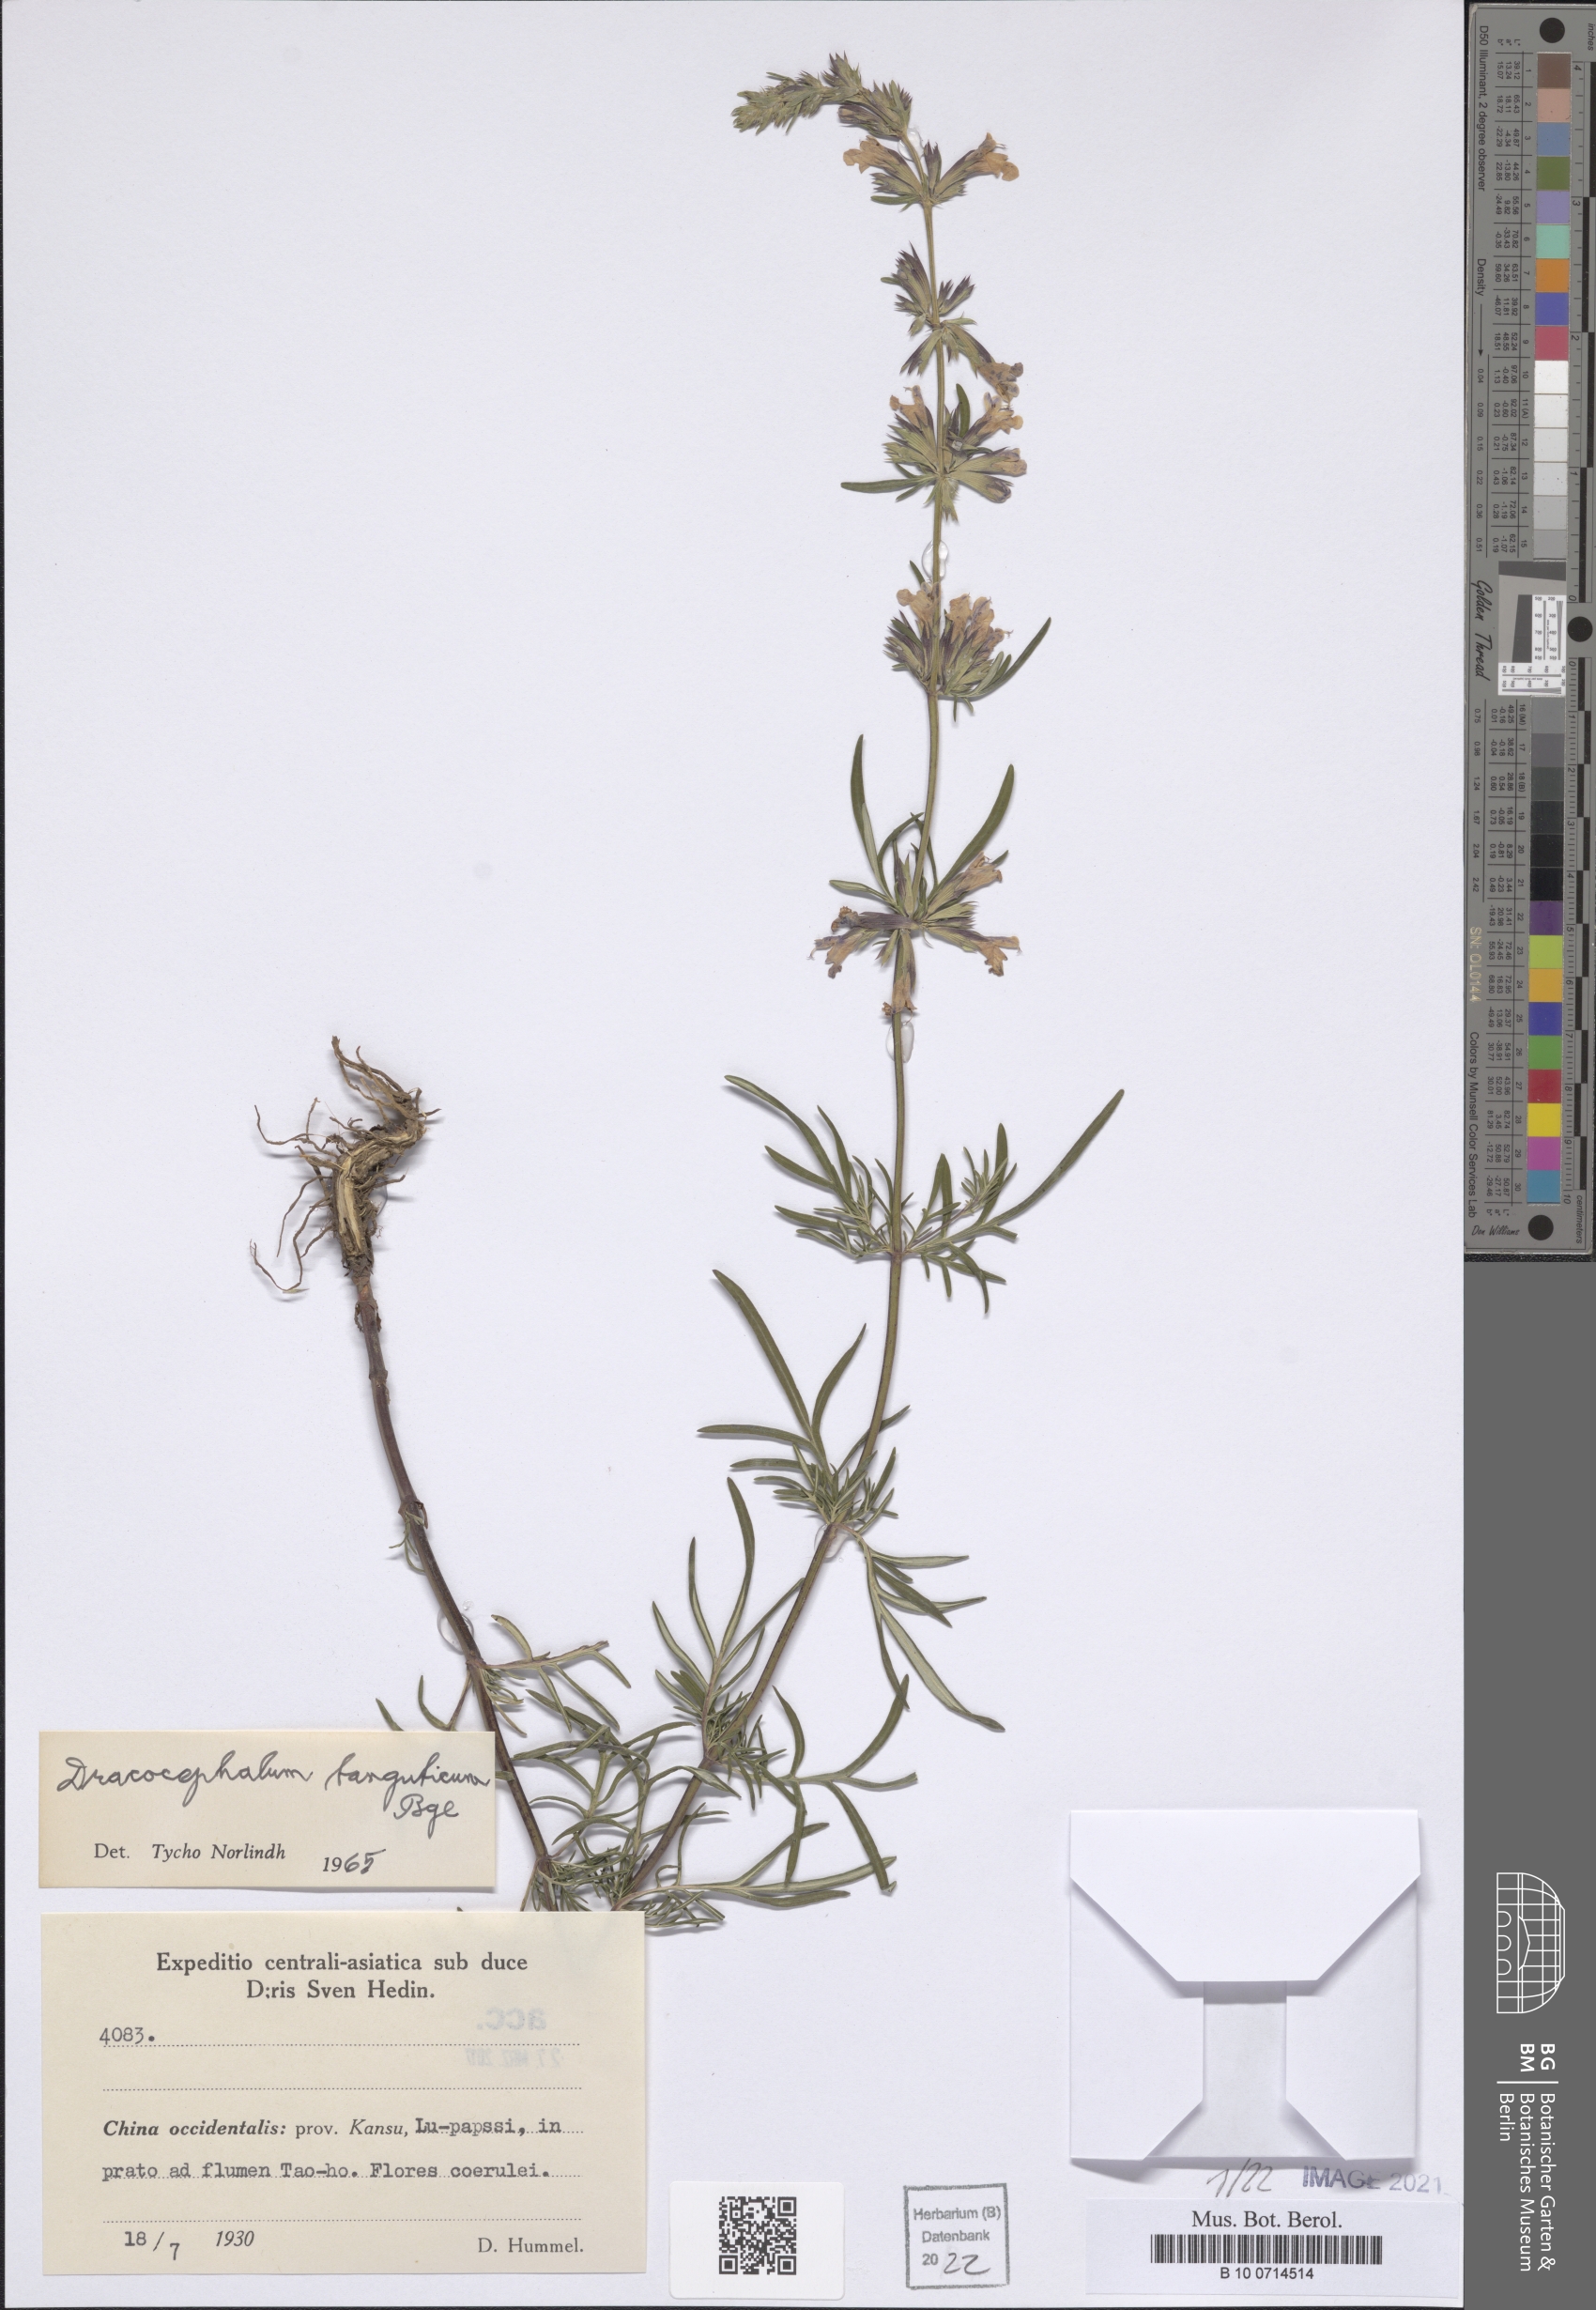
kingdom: Plantae
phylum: Tracheophyta
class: Magnoliopsida
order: Lamiales
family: Lamiaceae
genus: Dracocephalum
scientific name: Dracocephalum tanguticum
